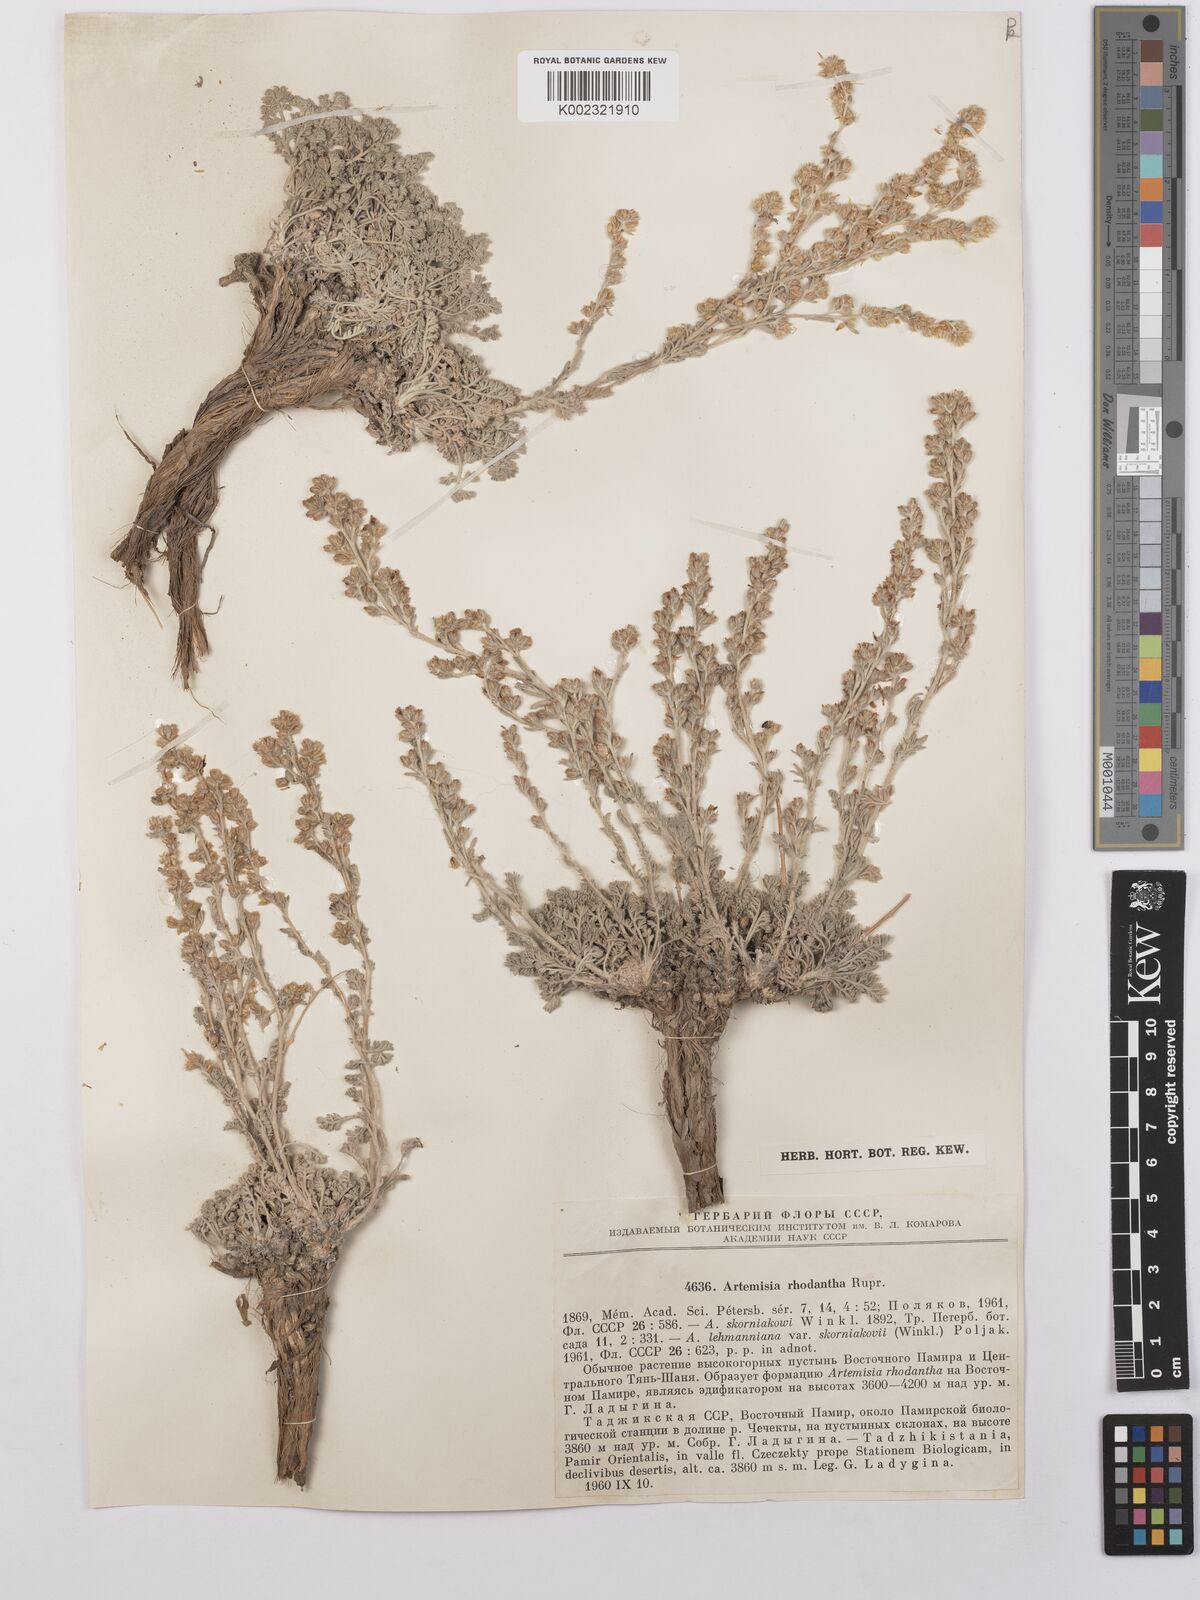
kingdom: Plantae
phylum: Tracheophyta
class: Magnoliopsida
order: Asterales
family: Asteraceae
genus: Artemisia
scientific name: Artemisia rhodantha
